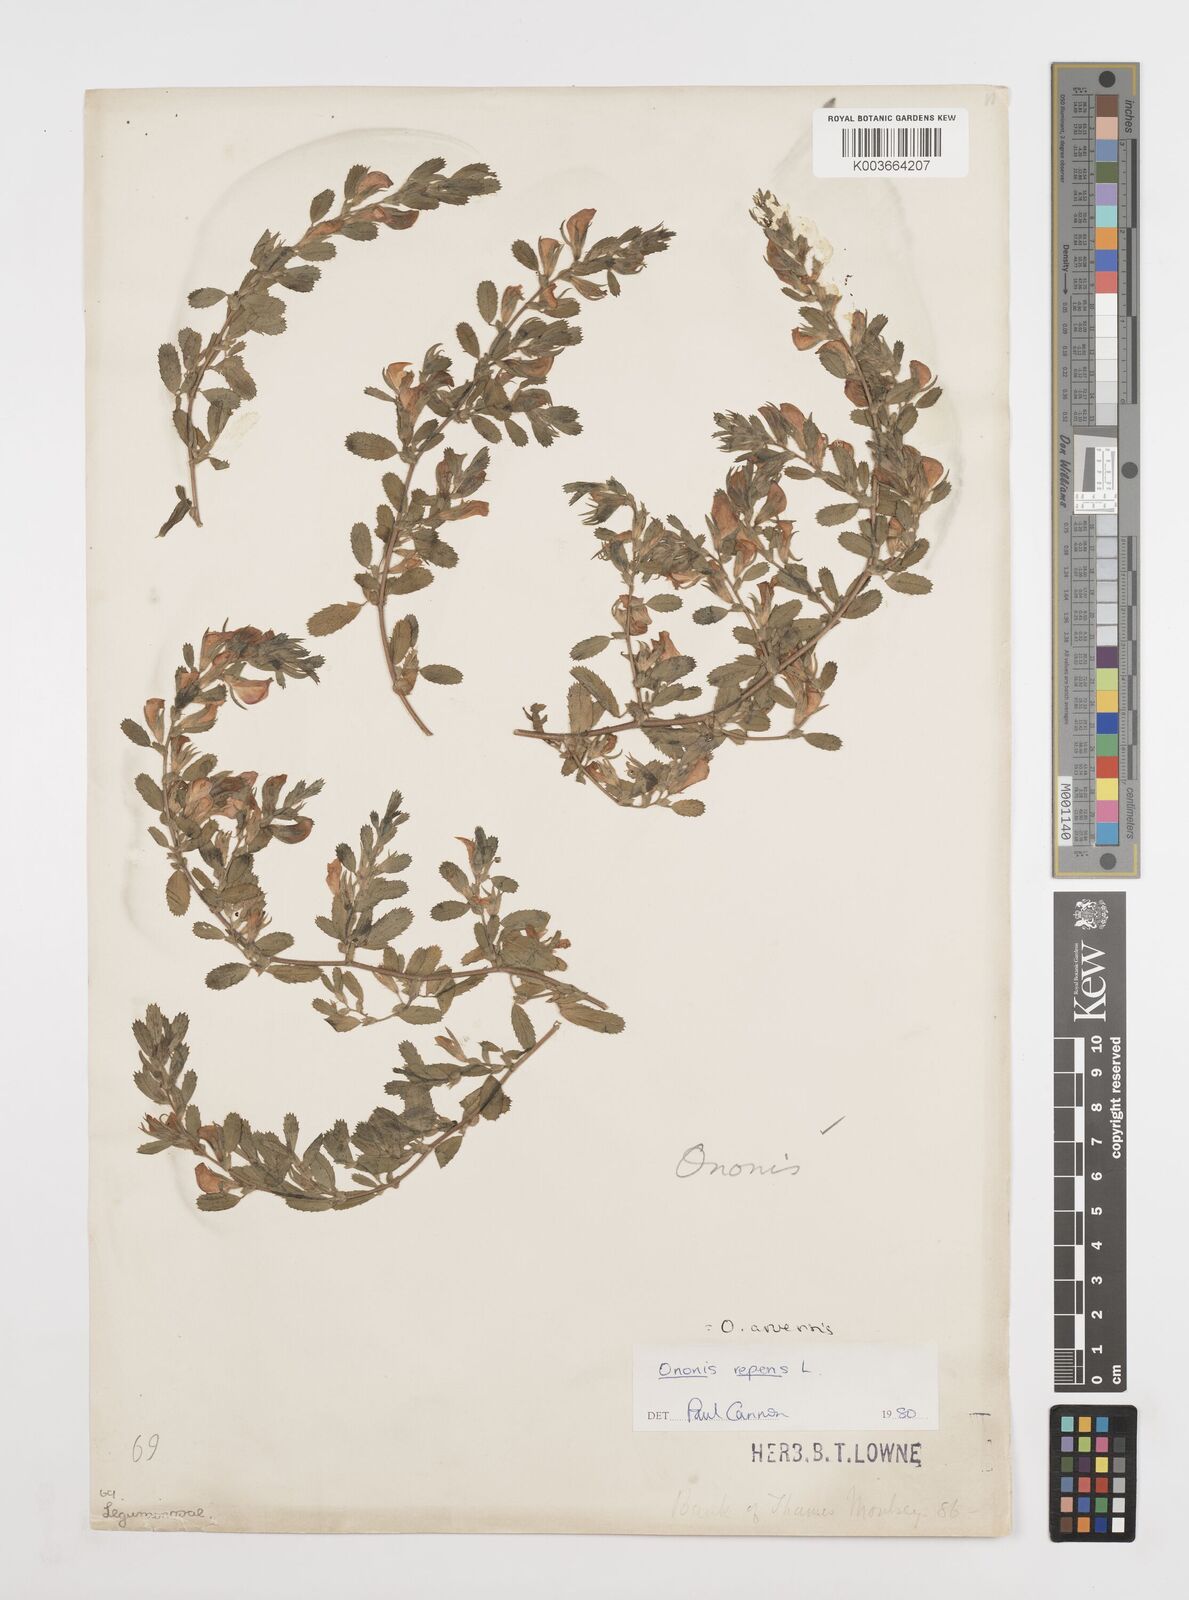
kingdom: Plantae
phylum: Tracheophyta
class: Magnoliopsida
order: Fabales
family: Fabaceae
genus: Ononis
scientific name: Ononis spinosa
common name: Spiny restharrow
